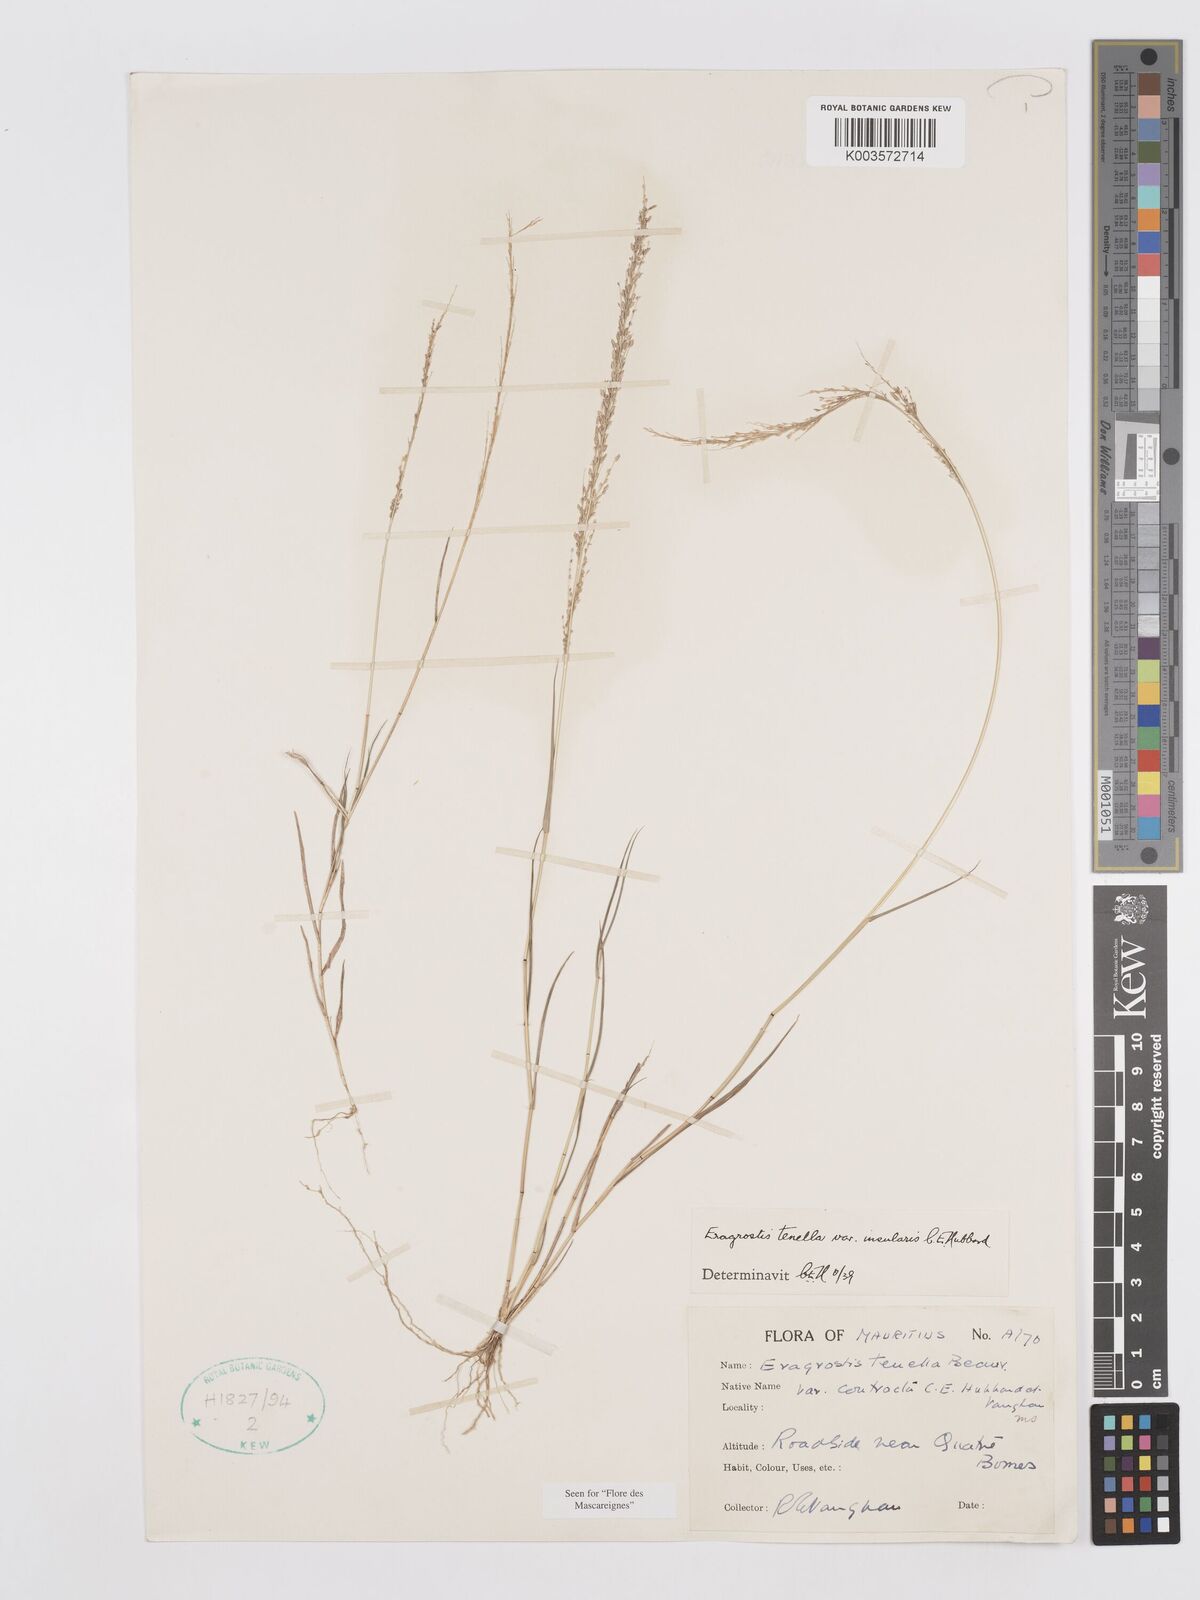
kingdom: Plantae
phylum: Tracheophyta
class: Liliopsida
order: Poales
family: Poaceae
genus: Eragrostis
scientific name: Eragrostis tenella
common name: Japanese lovegrass
